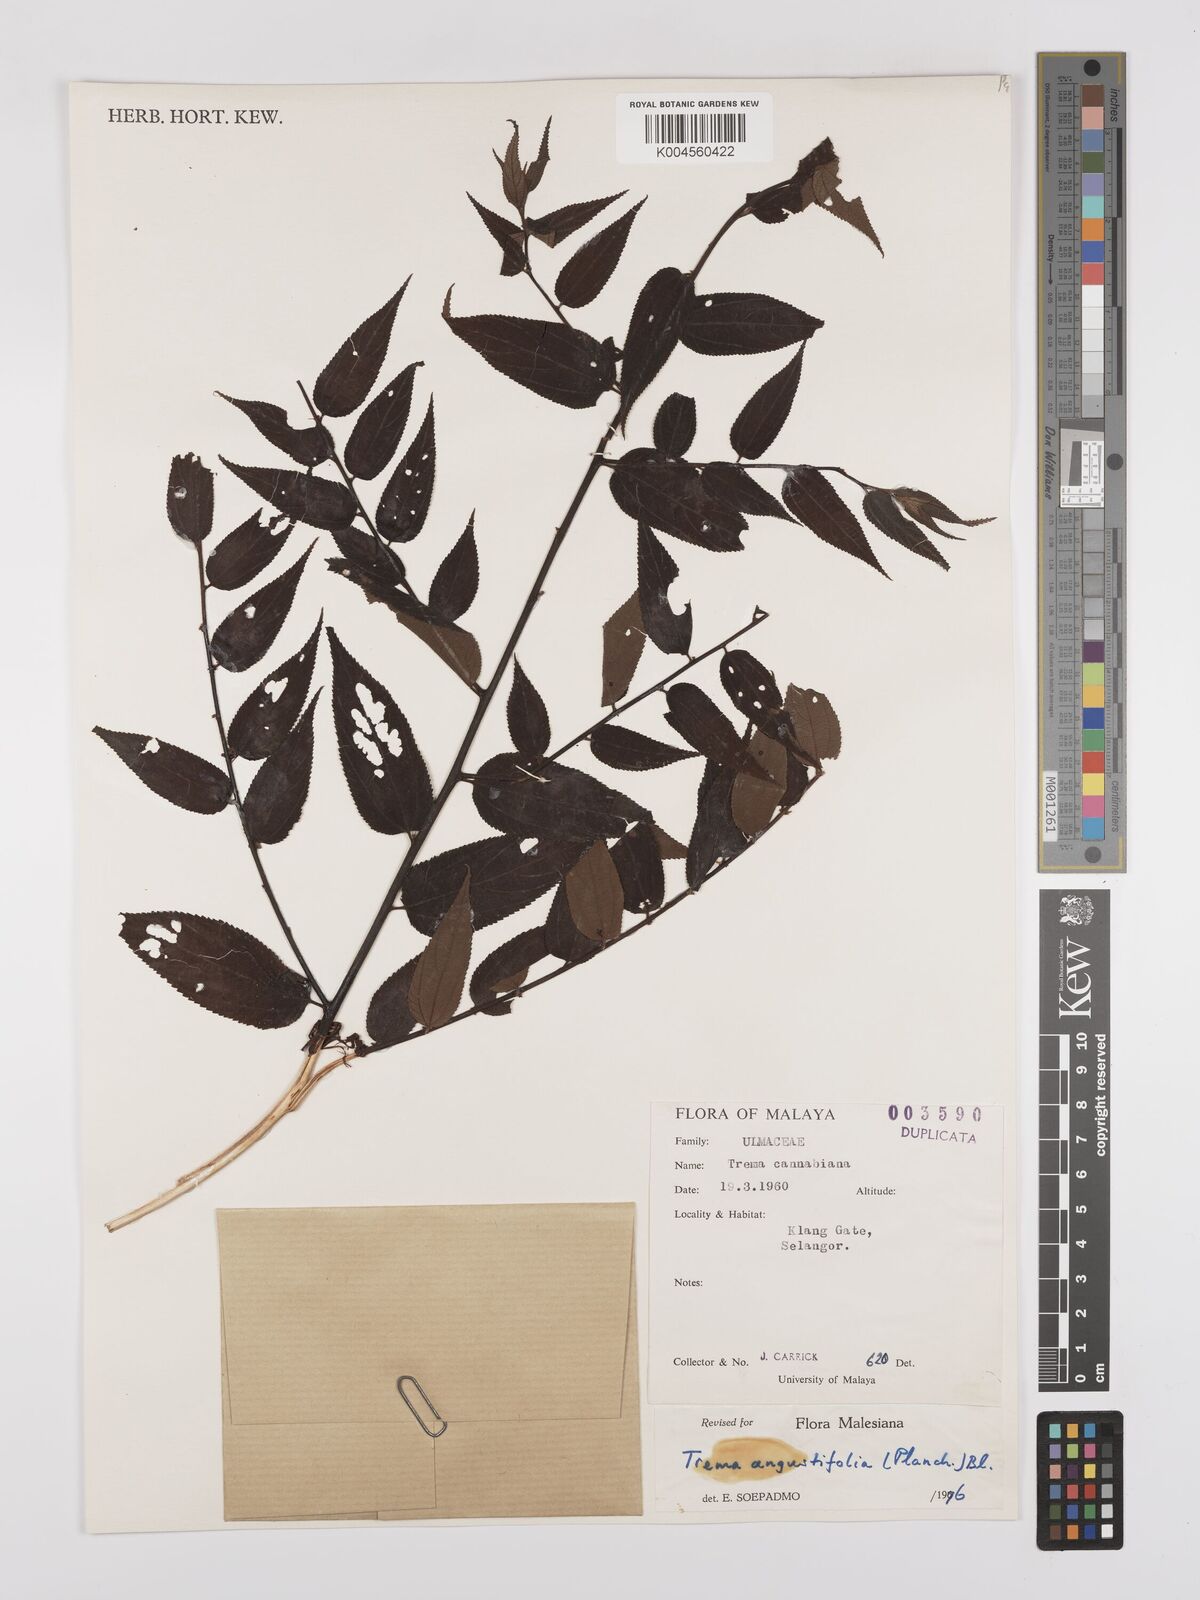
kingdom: Plantae
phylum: Tracheophyta
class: Magnoliopsida
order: Rosales
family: Cannabaceae
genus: Trema
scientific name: Trema angustifolium
